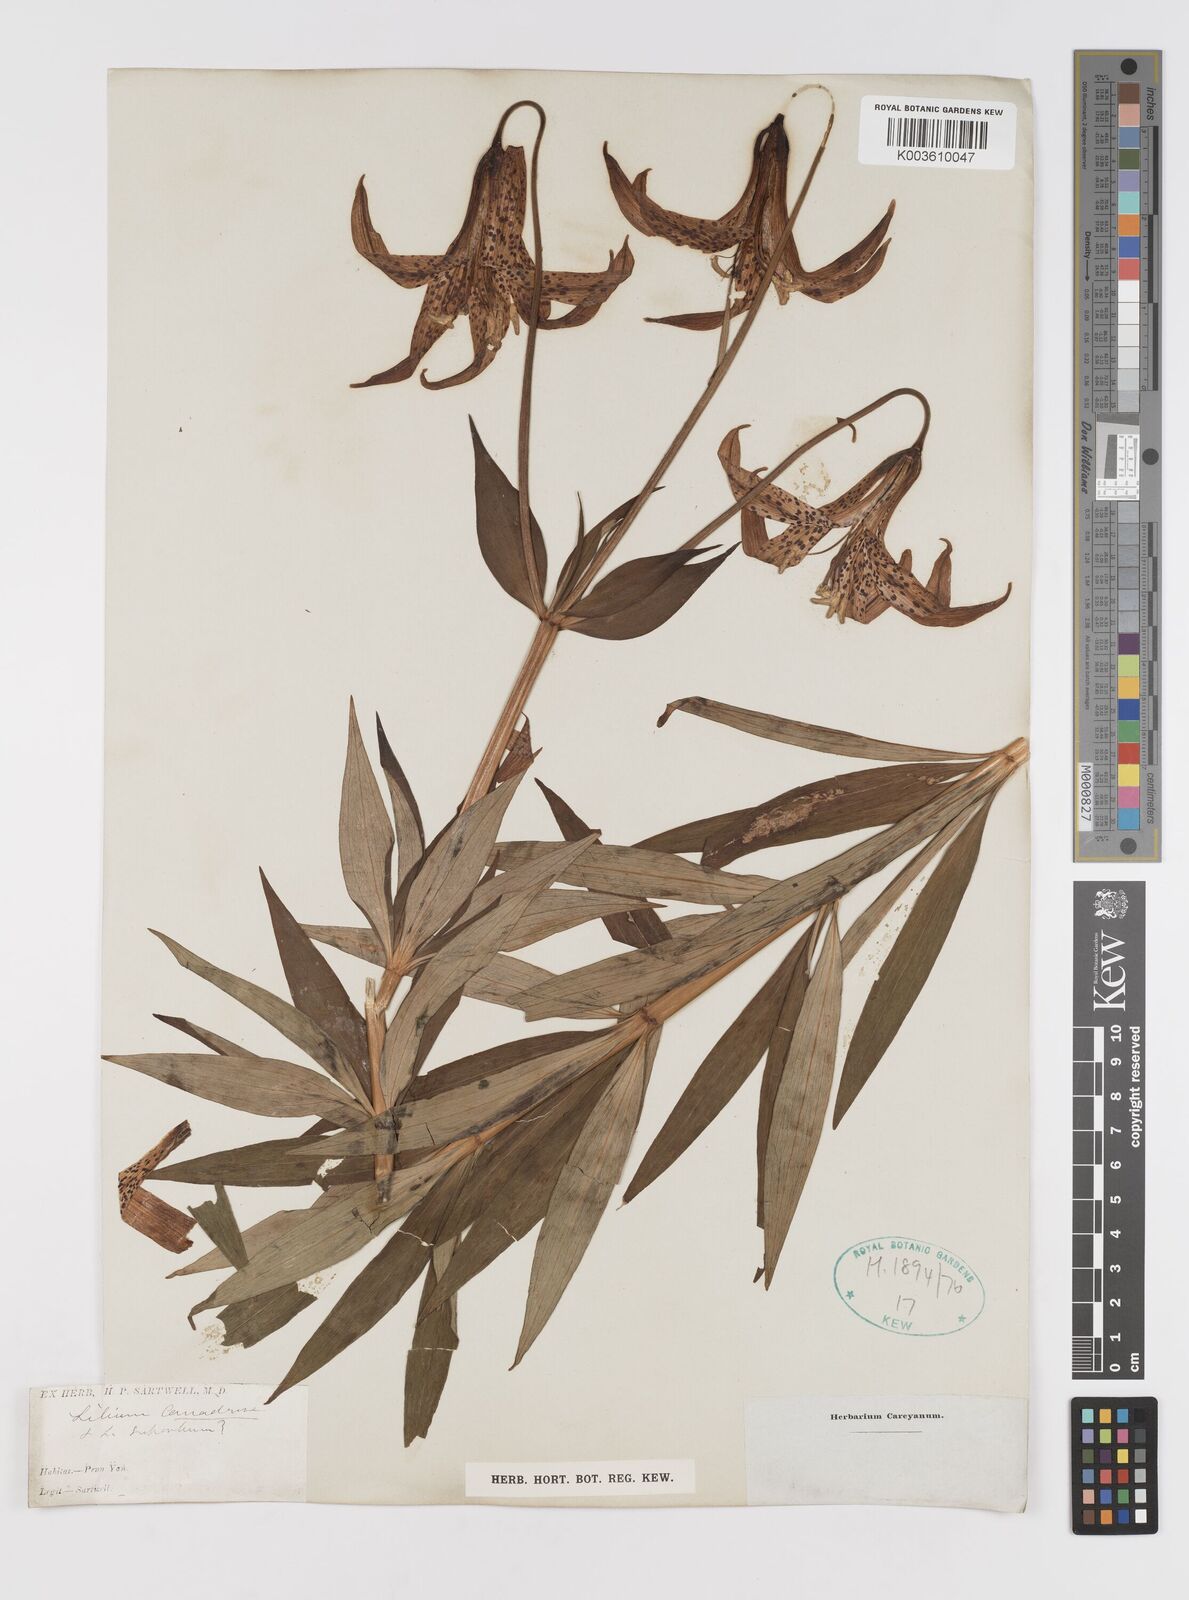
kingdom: Plantae
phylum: Tracheophyta
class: Liliopsida
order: Liliales
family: Liliaceae
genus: Lilium
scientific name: Lilium superbum
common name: American turk's-cap lily
